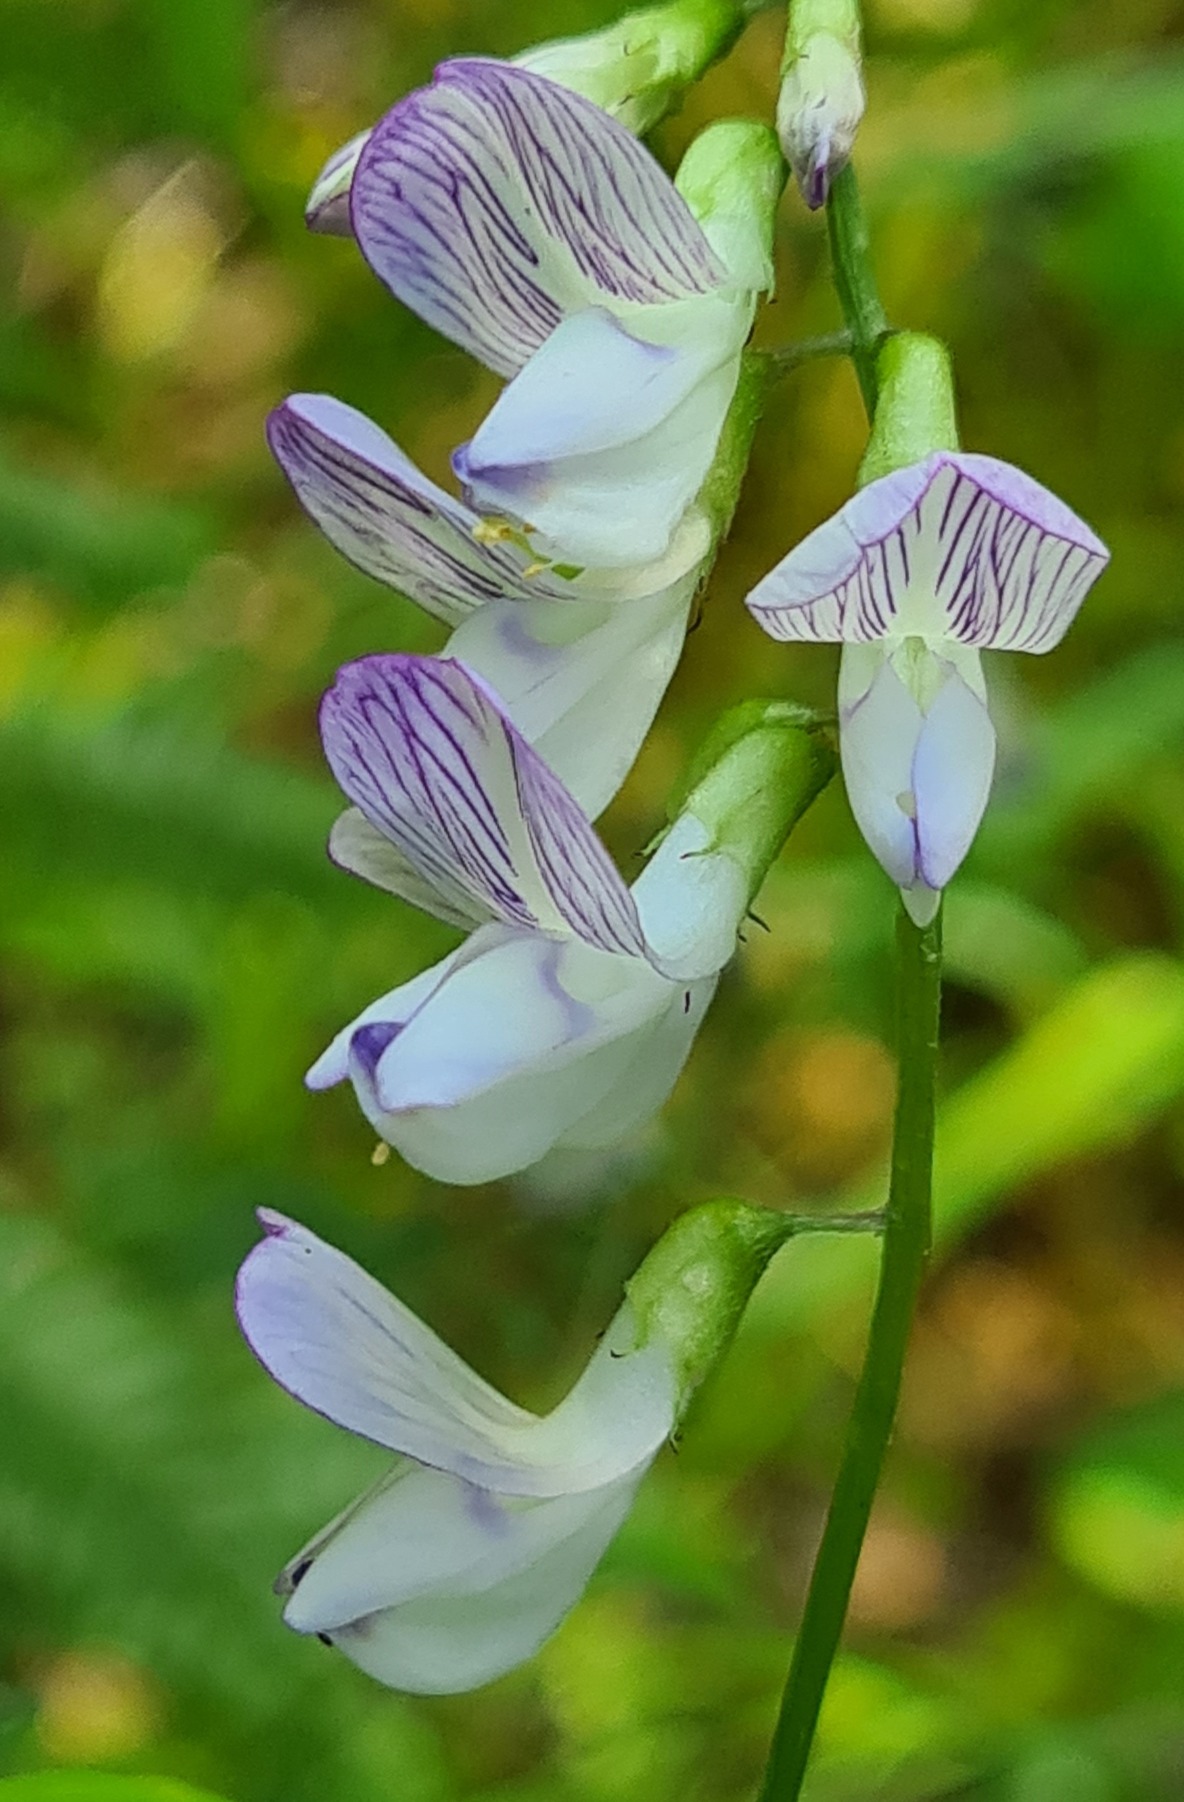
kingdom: Plantae
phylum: Tracheophyta
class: Magnoliopsida
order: Fabales
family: Fabaceae
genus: Vicia
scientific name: Vicia sylvatica
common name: Skov-vikke
